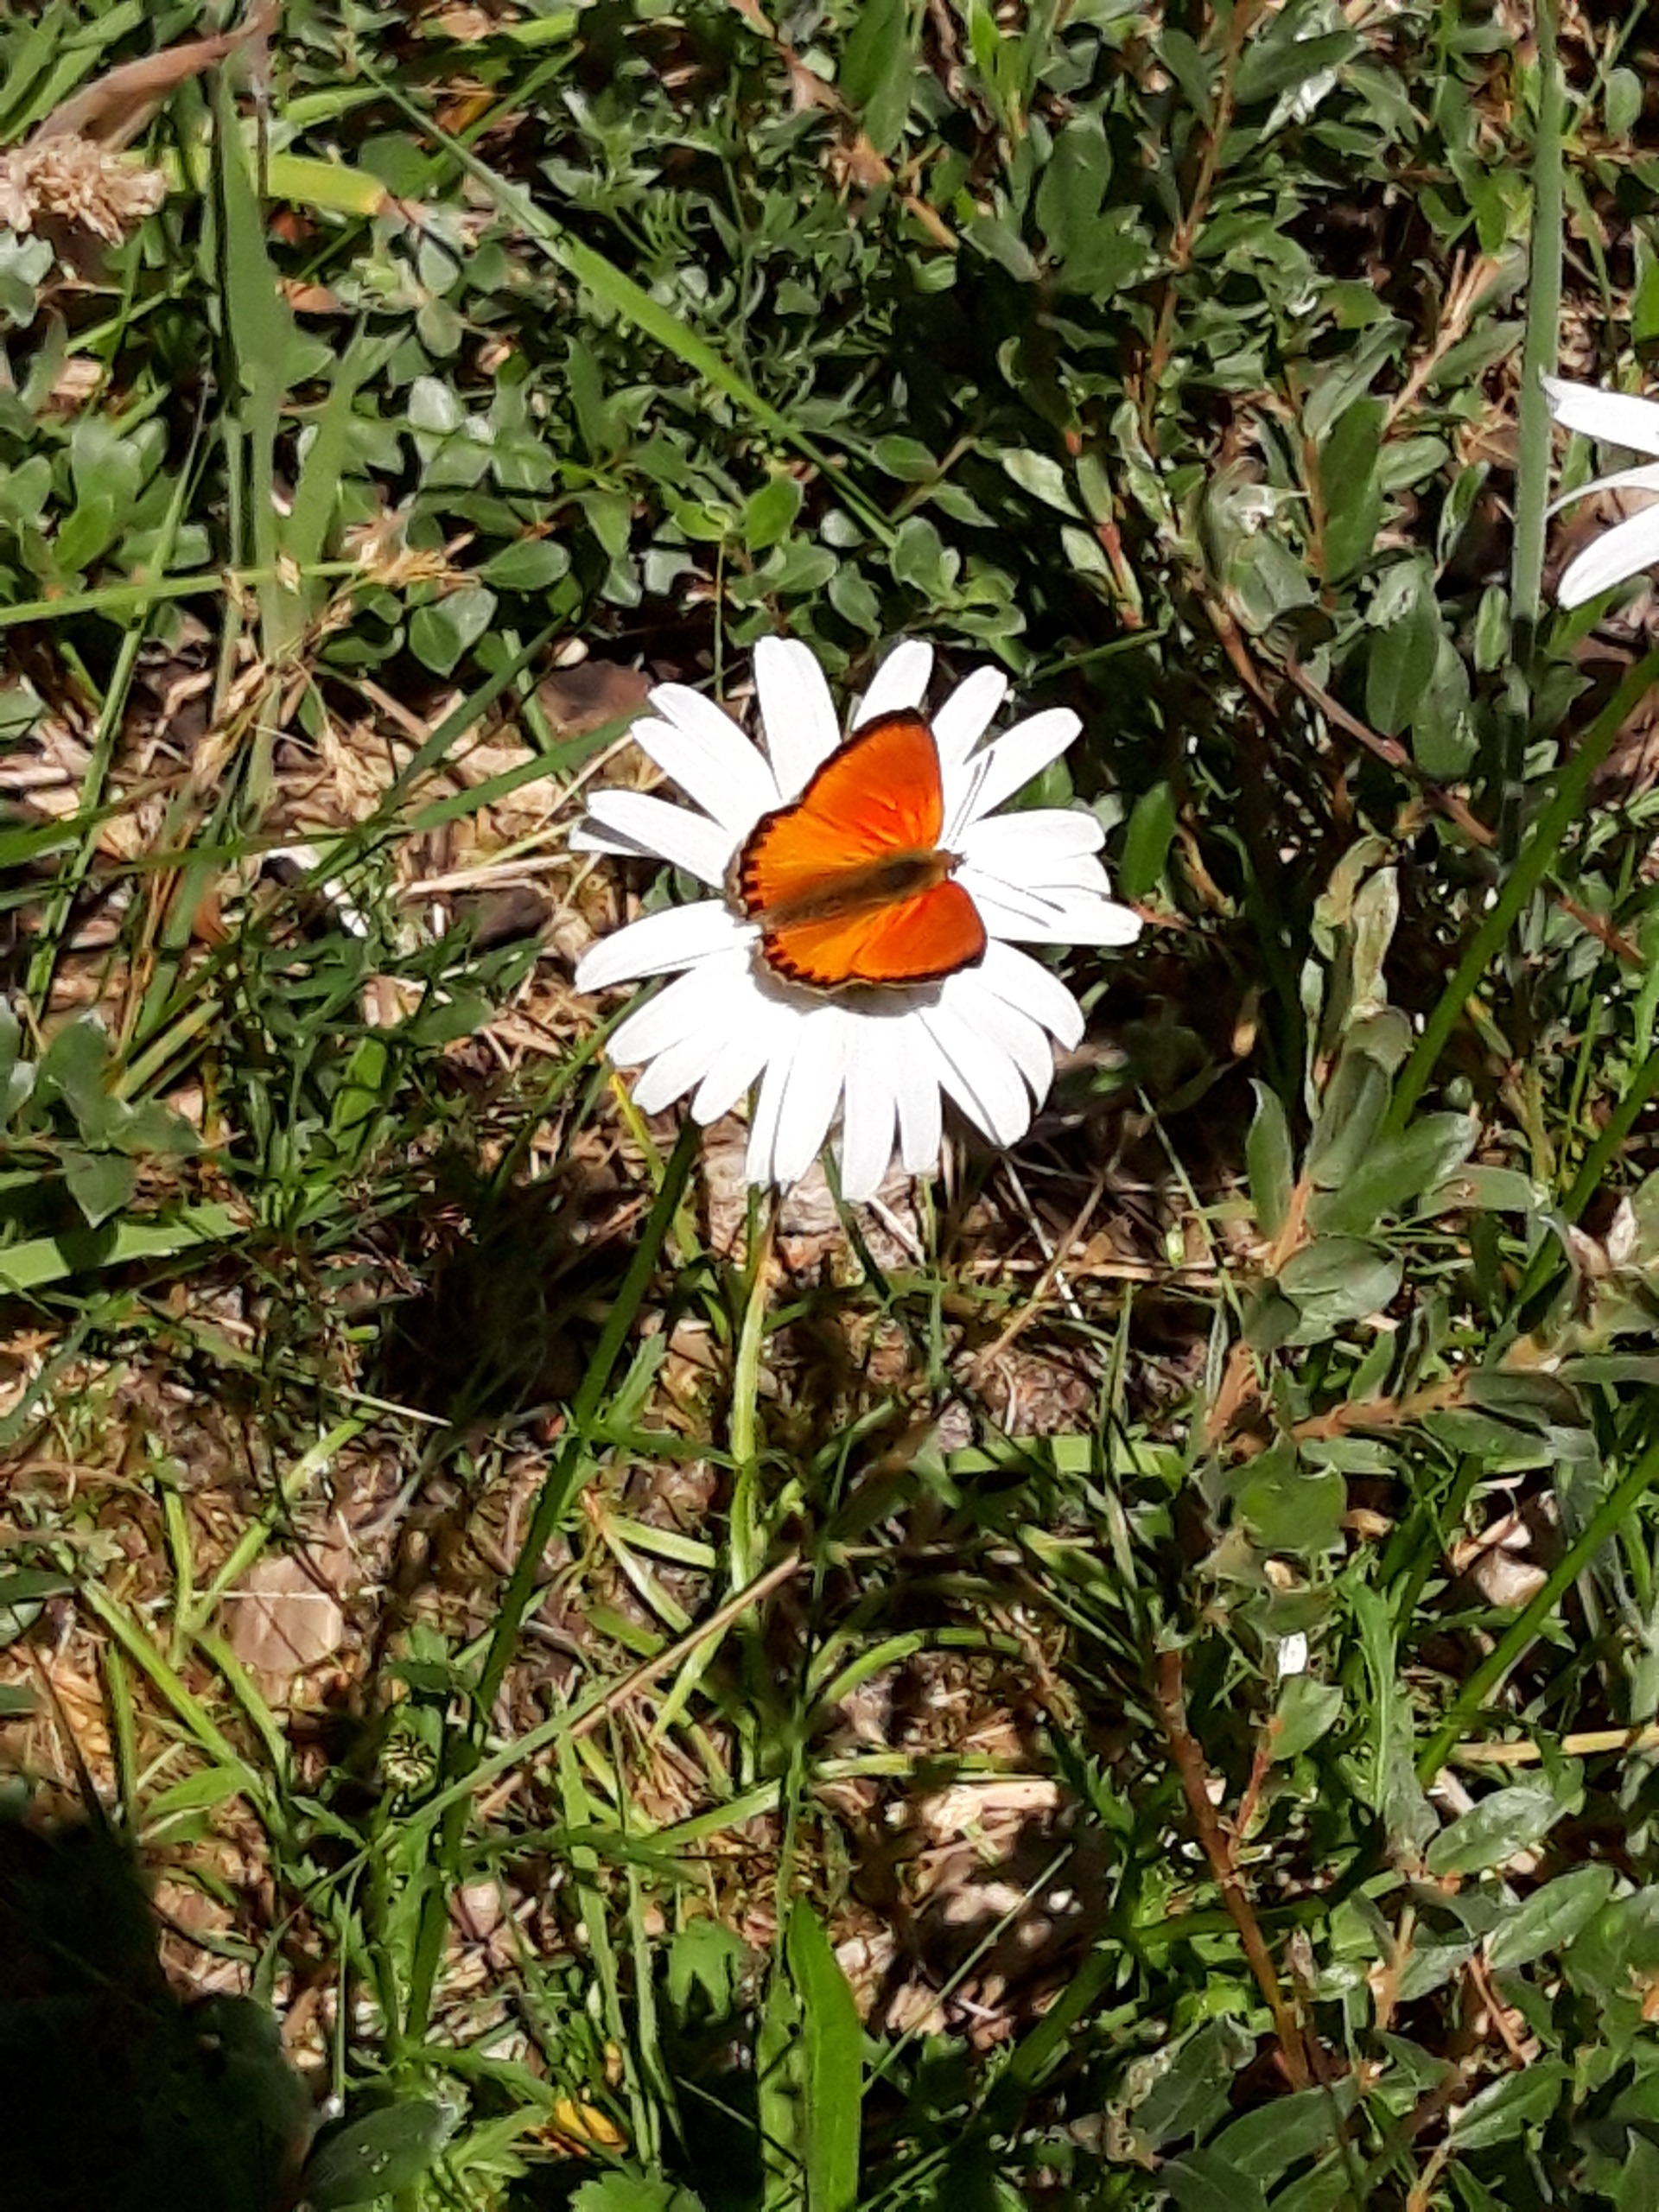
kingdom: Animalia
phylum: Arthropoda
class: Insecta
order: Lepidoptera
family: Lycaenidae
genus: Lycaena
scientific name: Lycaena virgaureae
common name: Dukatsommerfugl
